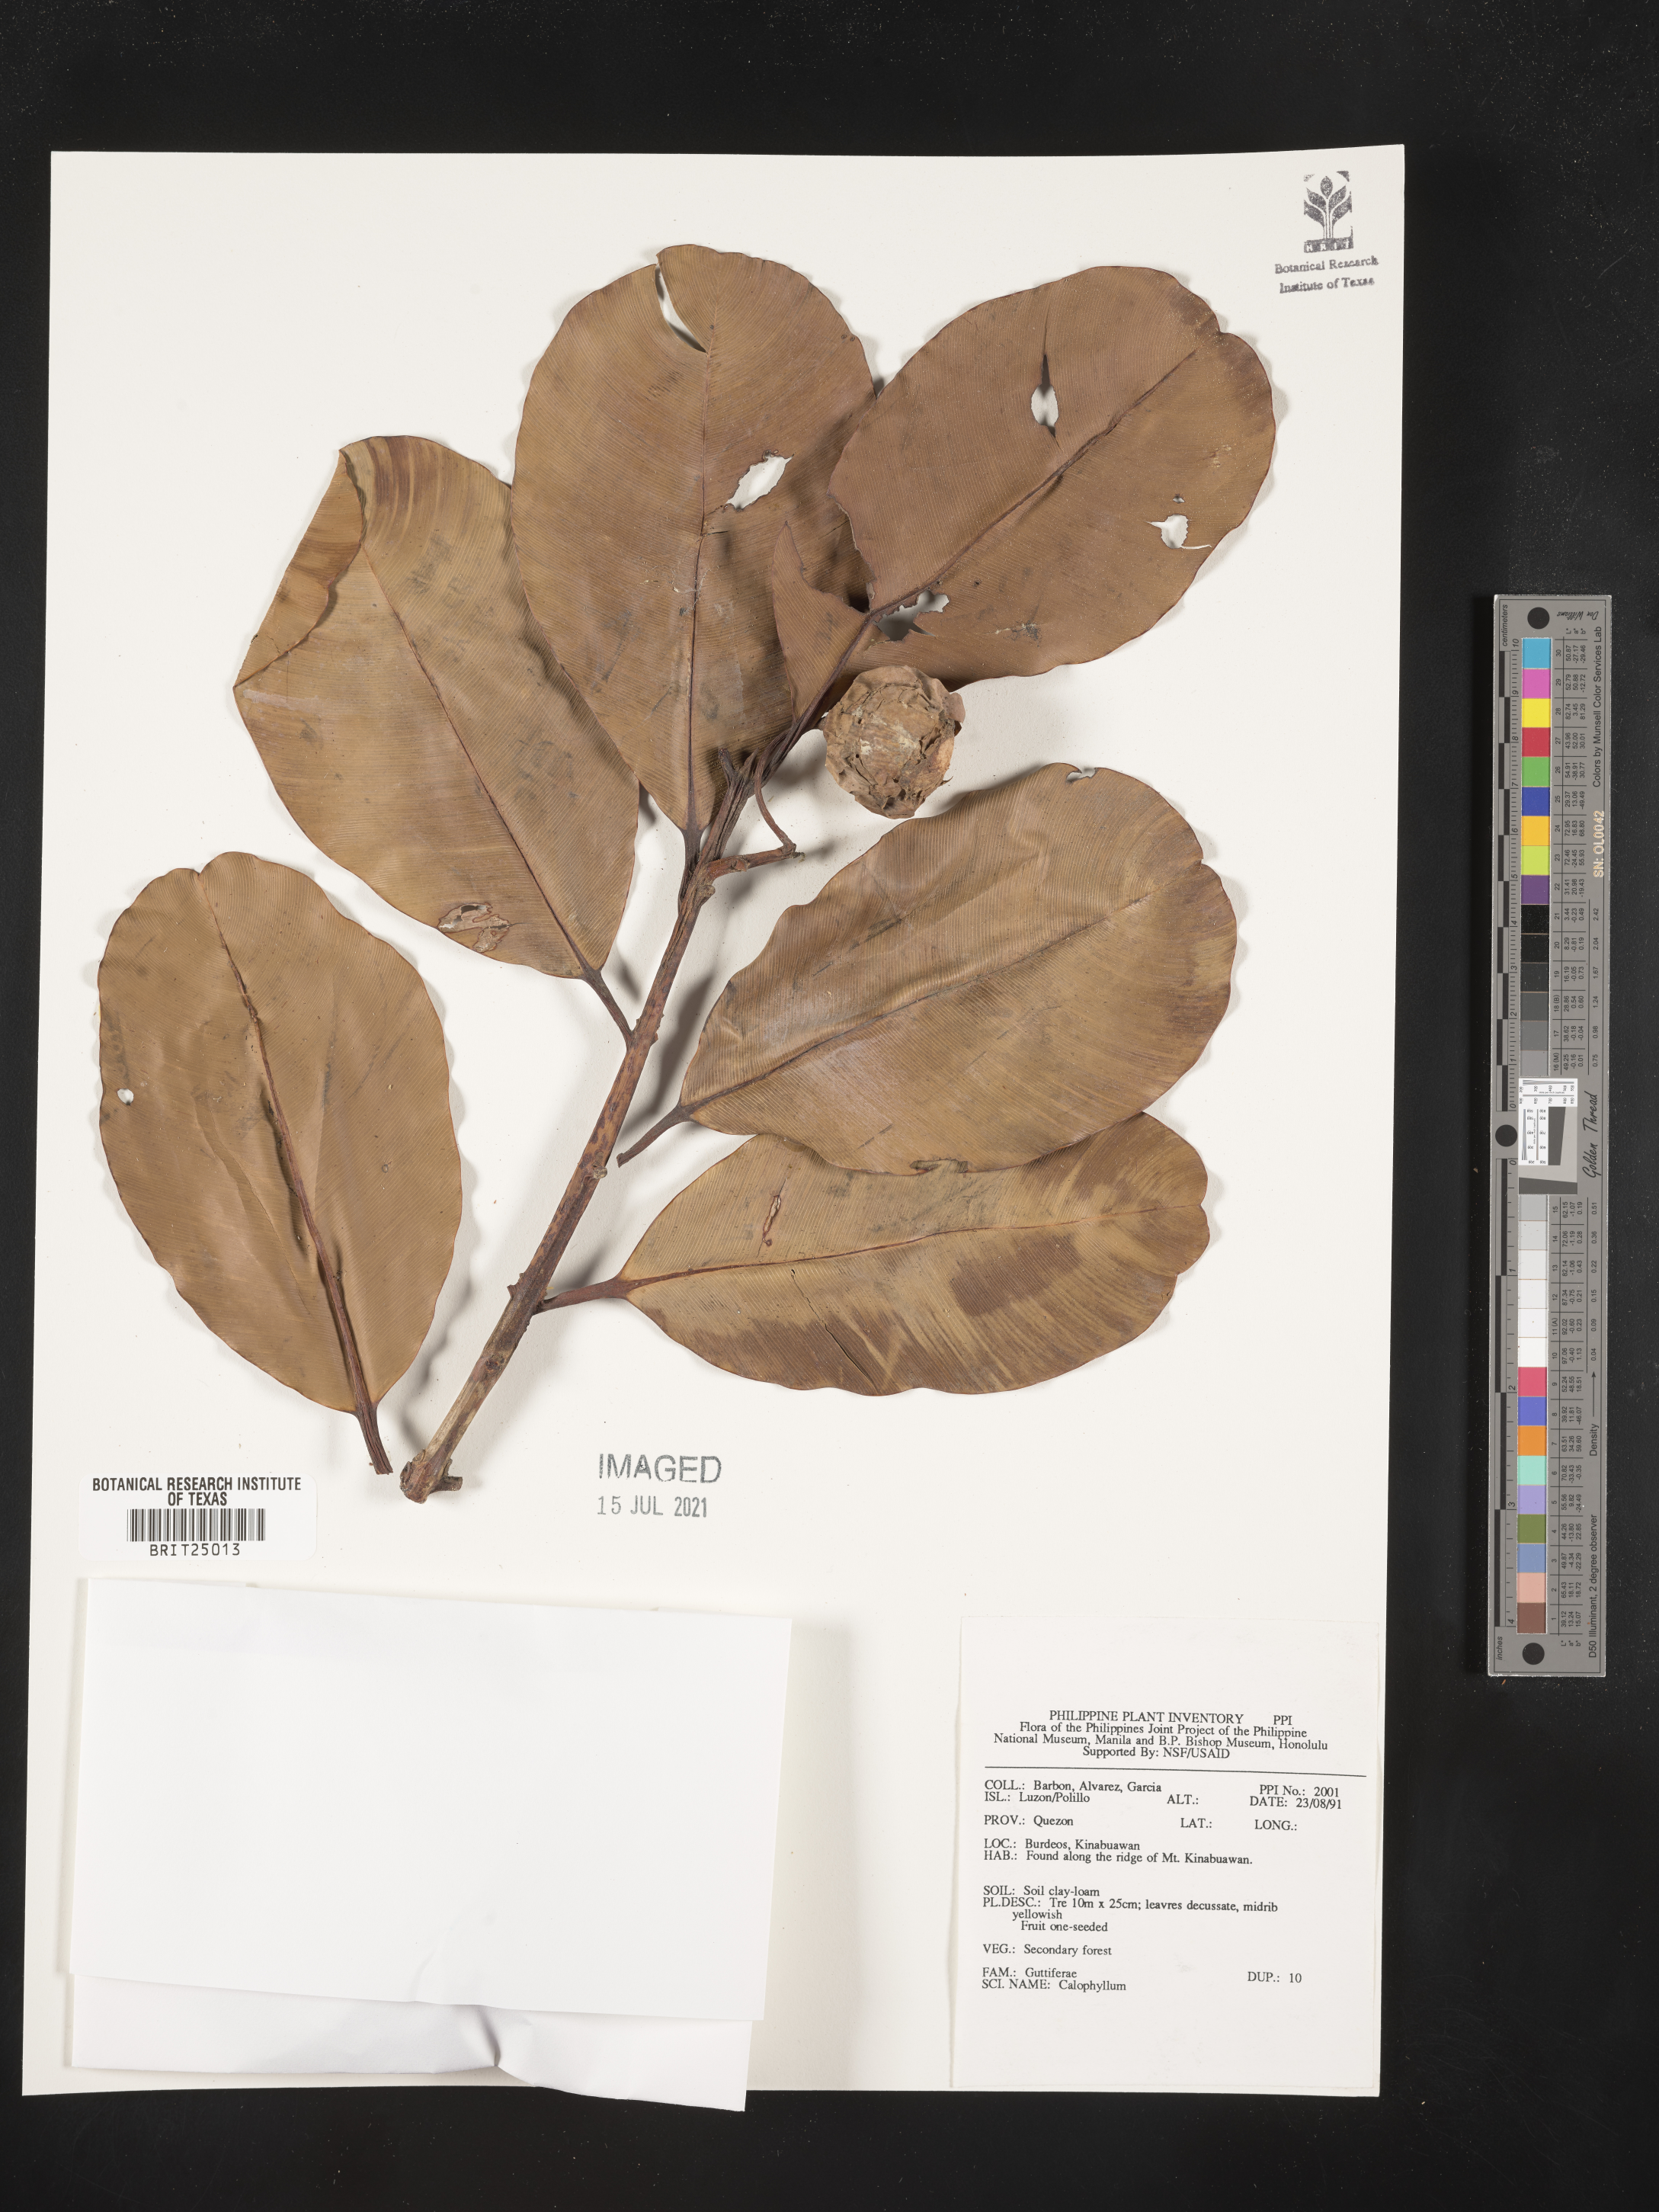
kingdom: Plantae
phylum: Tracheophyta
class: Magnoliopsida
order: Malpighiales
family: Calophyllaceae
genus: Calophyllum
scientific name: Calophyllum
